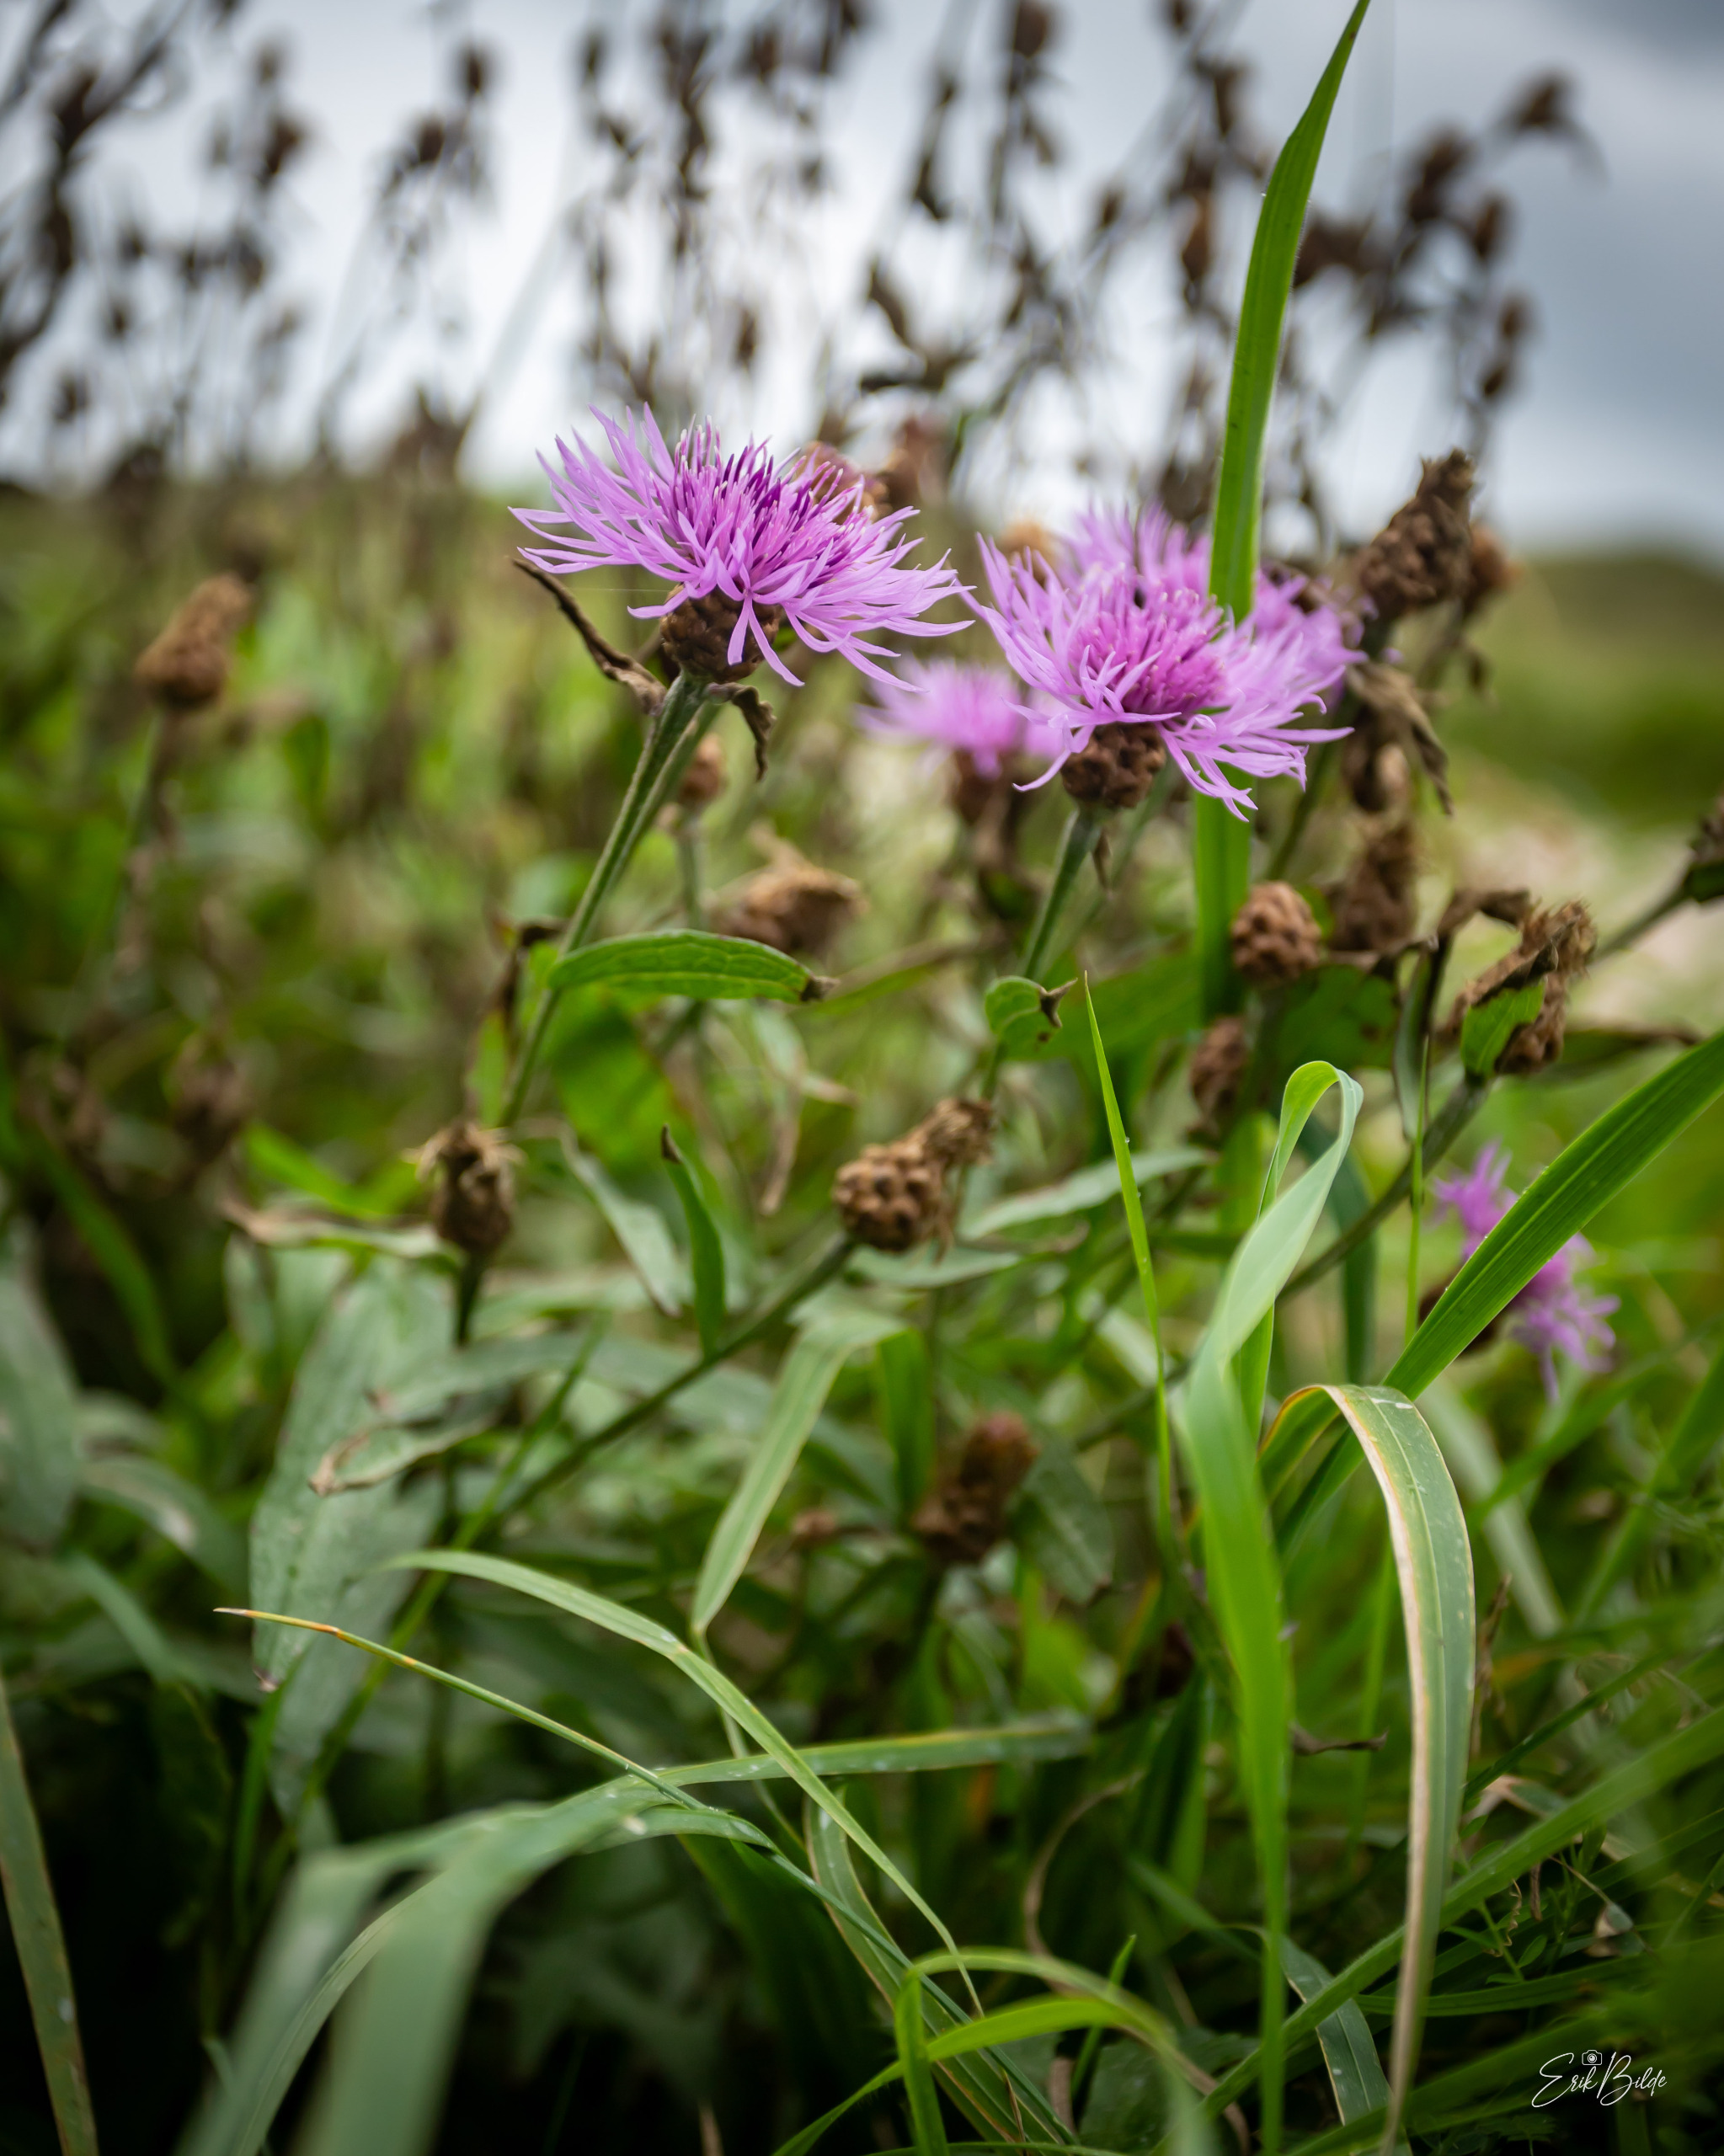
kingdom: Plantae
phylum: Tracheophyta
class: Magnoliopsida
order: Asterales
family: Asteraceae
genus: Centaurea
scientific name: Centaurea jacea
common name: Almindelig knopurt
